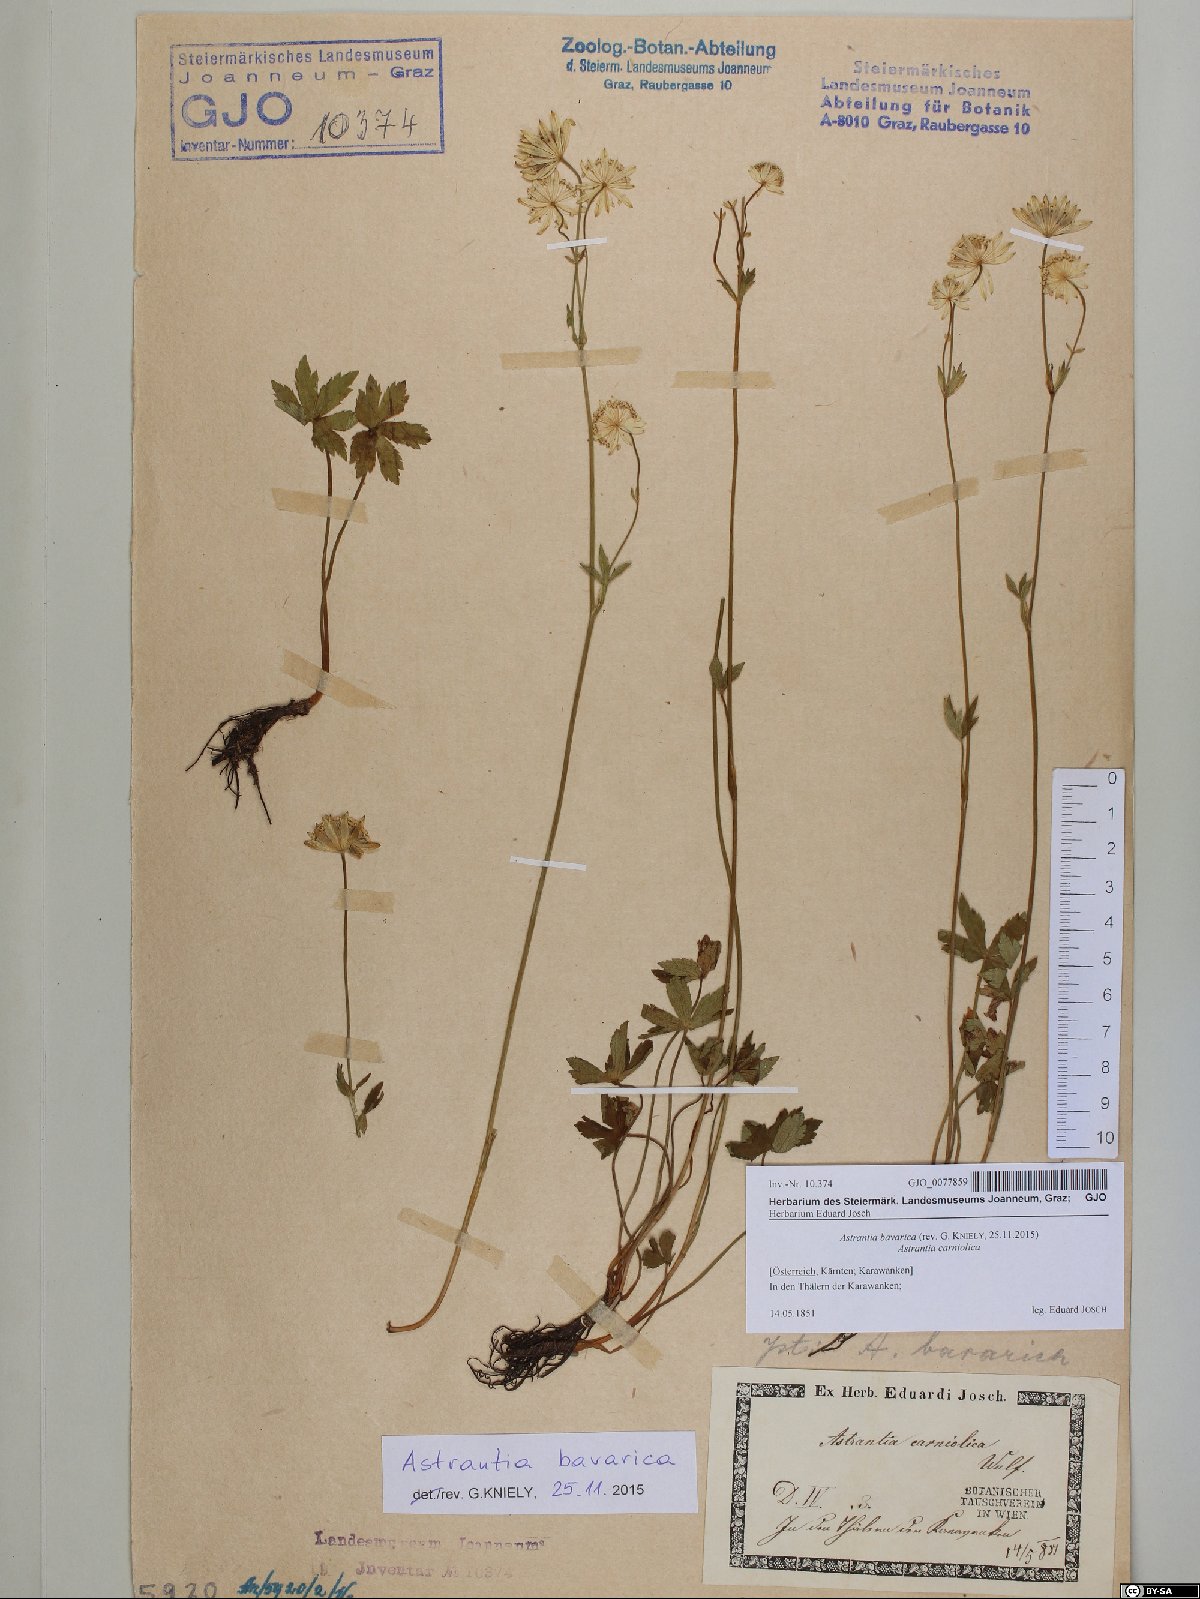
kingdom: Plantae
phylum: Tracheophyta
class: Magnoliopsida
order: Apiales
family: Apiaceae
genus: Astrantia
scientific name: Astrantia bavarica
